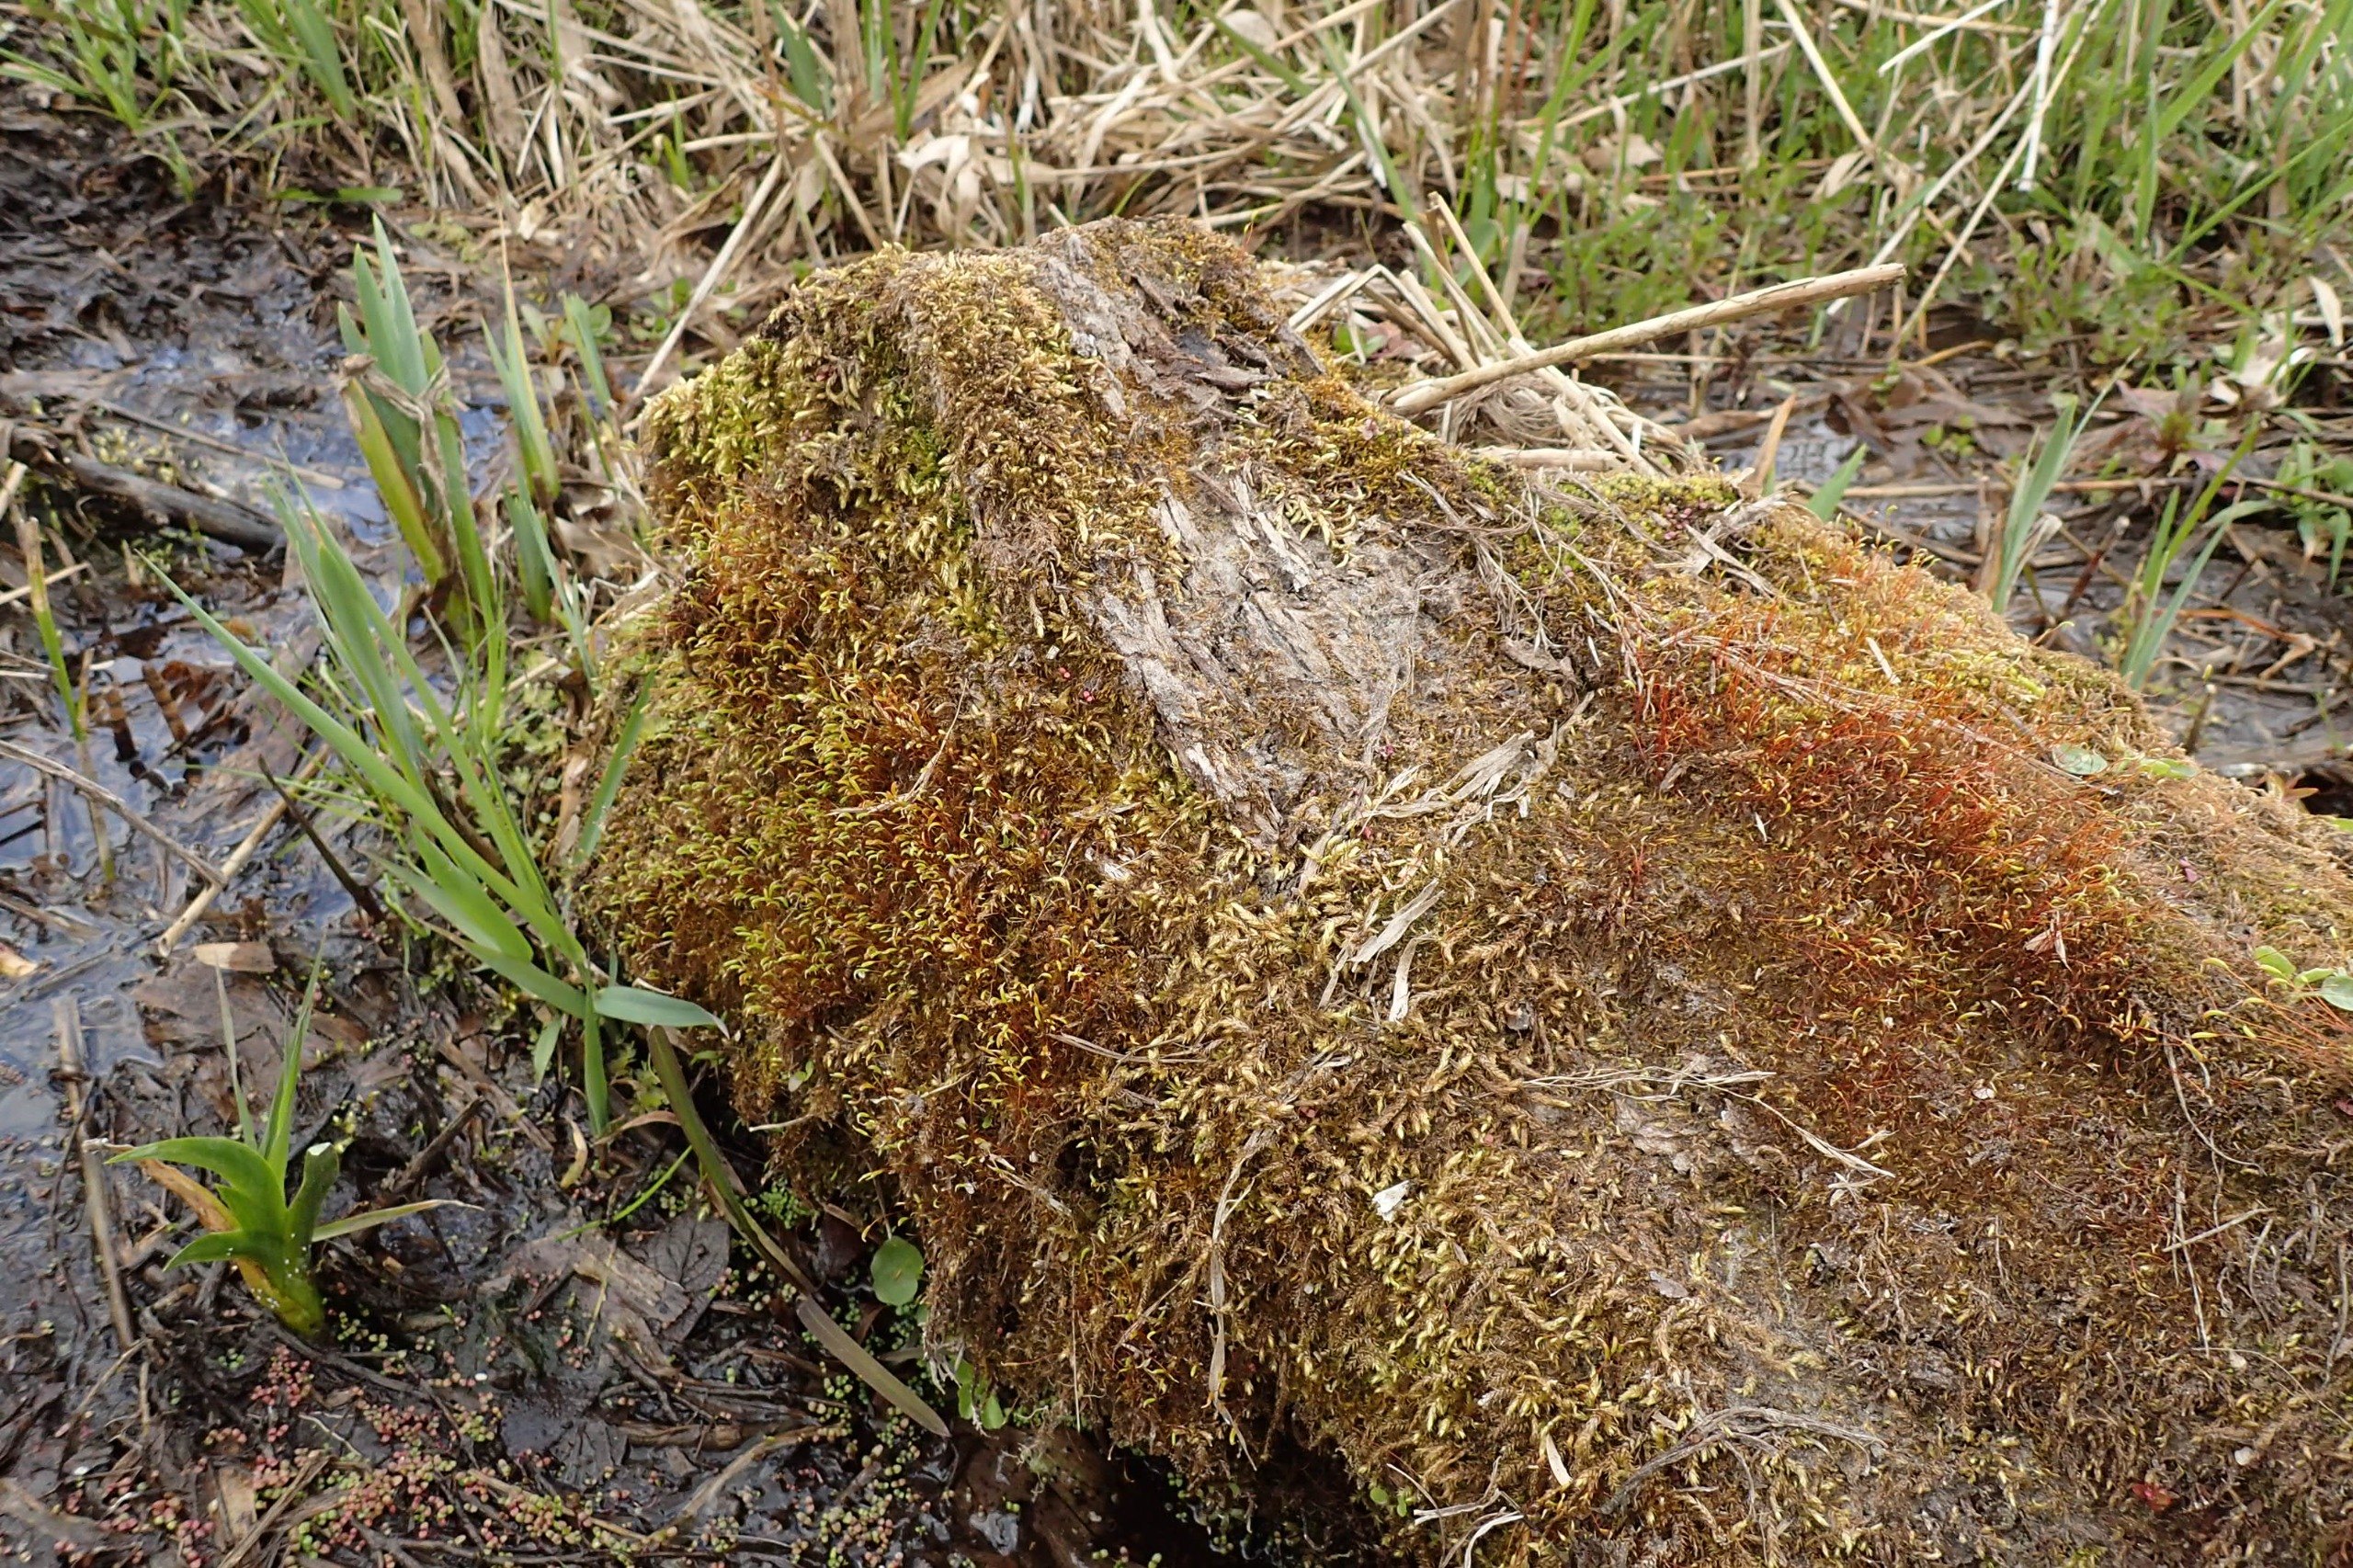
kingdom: Plantae
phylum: Bryophyta
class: Bryopsida
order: Hypnales
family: Amblystegiaceae
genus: Amblystegium
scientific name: Amblystegium serpens
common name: Almindelig krybmos
